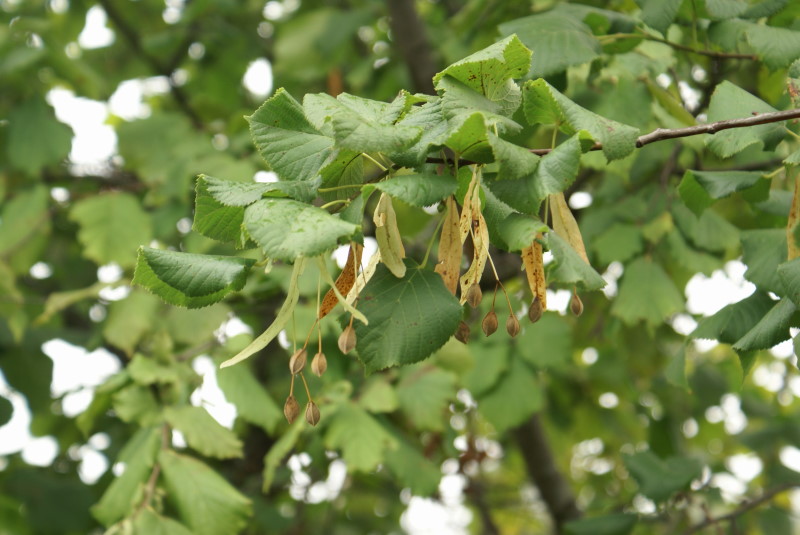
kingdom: Plantae
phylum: Tracheophyta
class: Magnoliopsida
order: Malvales
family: Malvaceae
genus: Tilia
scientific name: Tilia europaea
